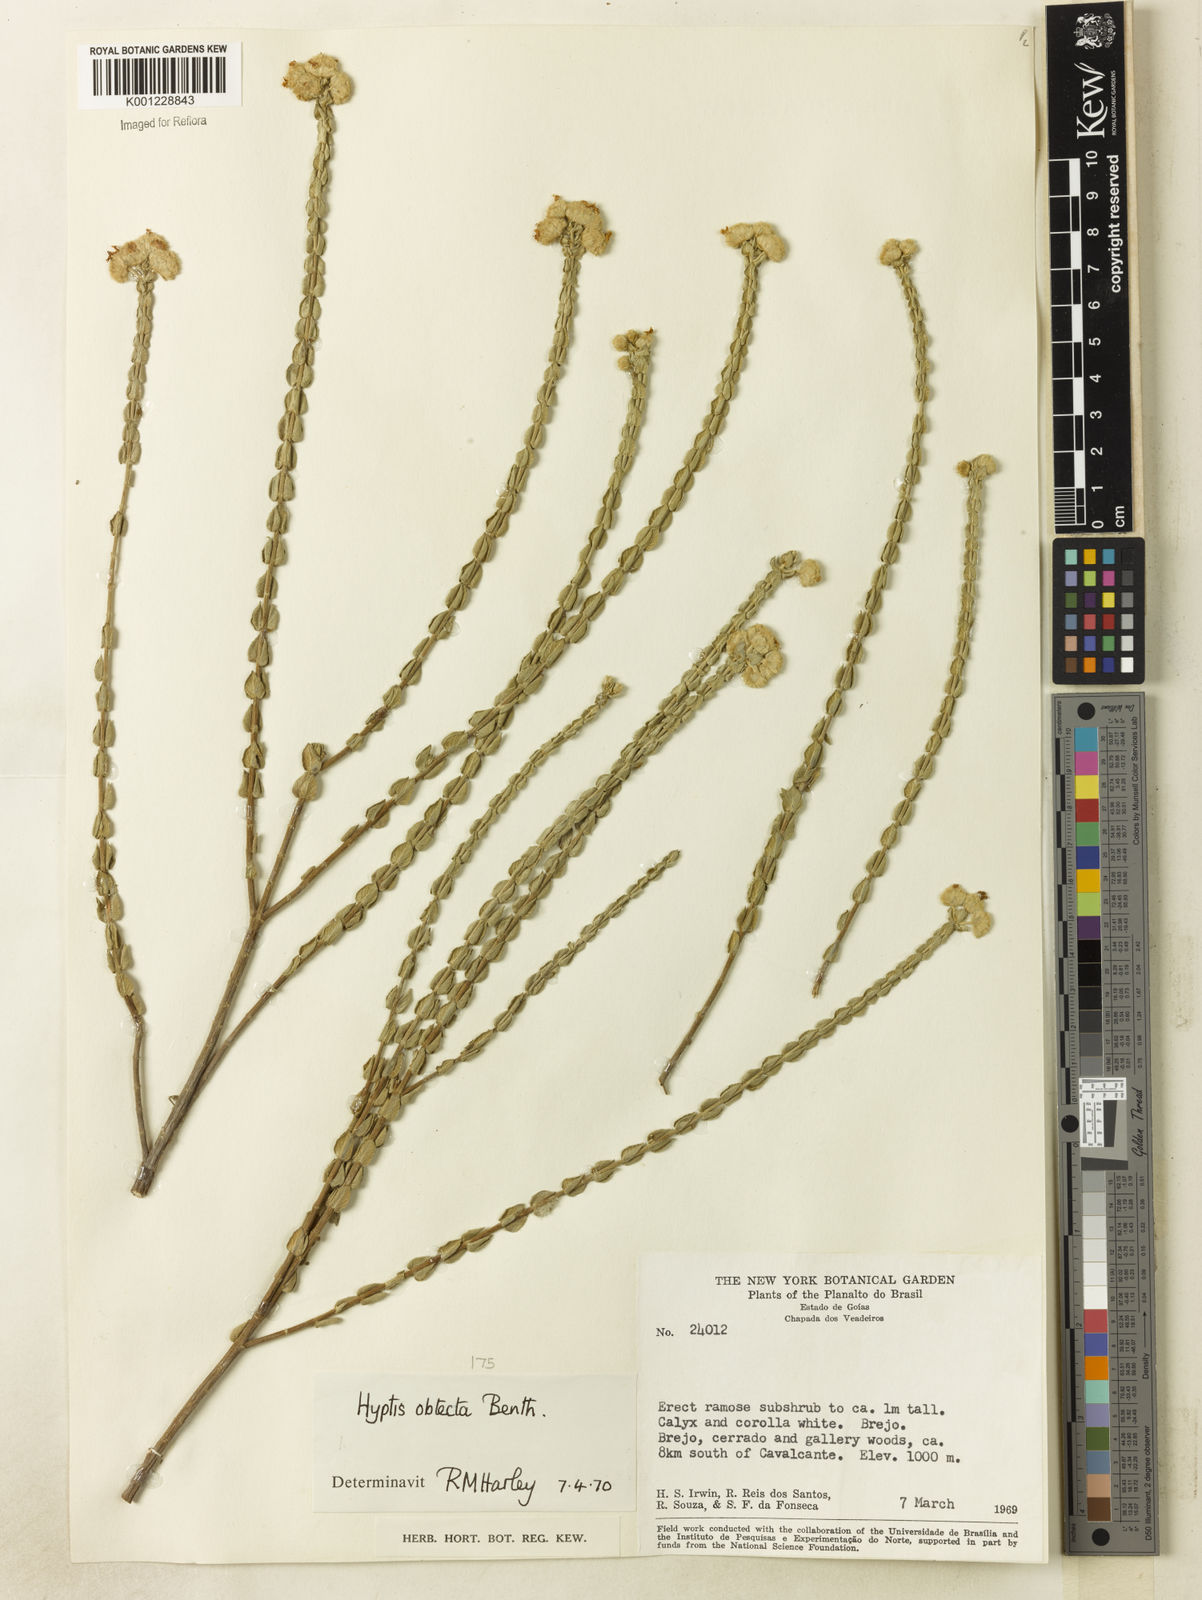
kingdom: Plantae
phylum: Tracheophyta
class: Magnoliopsida
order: Lamiales
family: Lamiaceae
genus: Hyptis
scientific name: Hyptis obtecta
